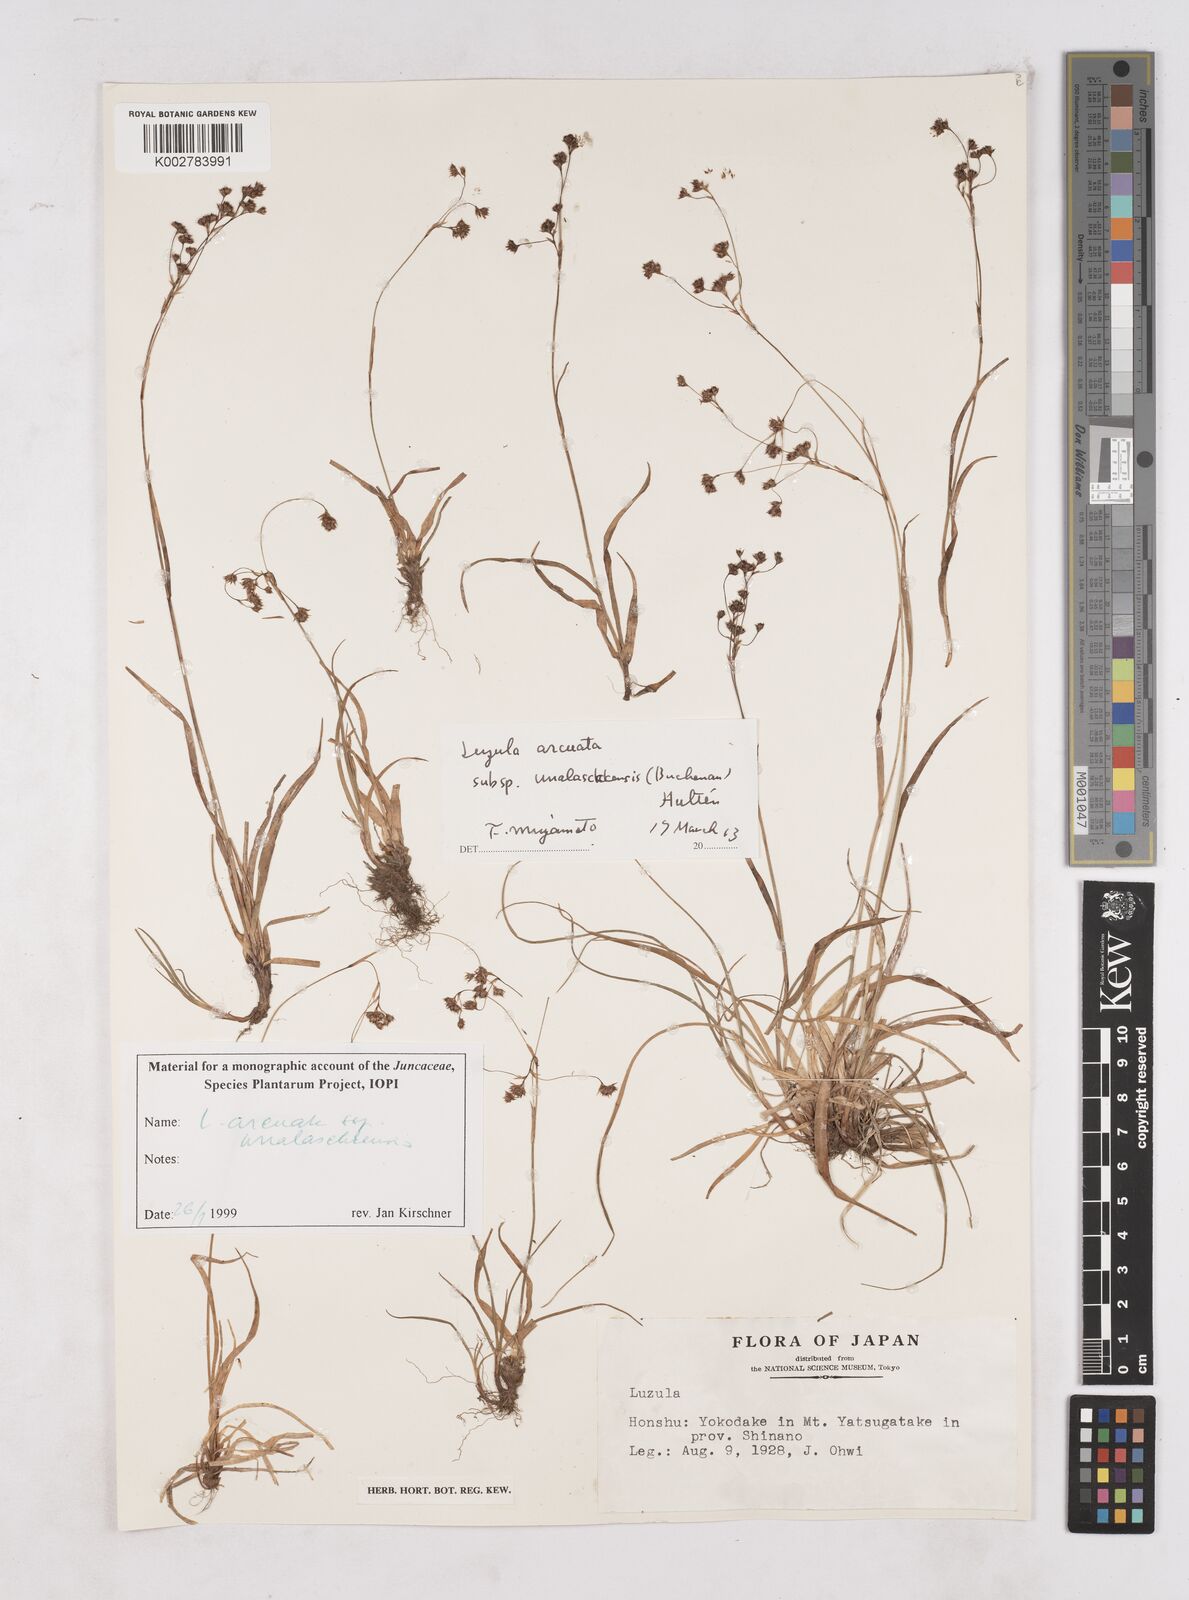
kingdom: Plantae
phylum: Tracheophyta
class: Liliopsida
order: Poales
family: Juncaceae
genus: Luzula
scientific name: Luzula arcuata
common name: Curved wood-rush
